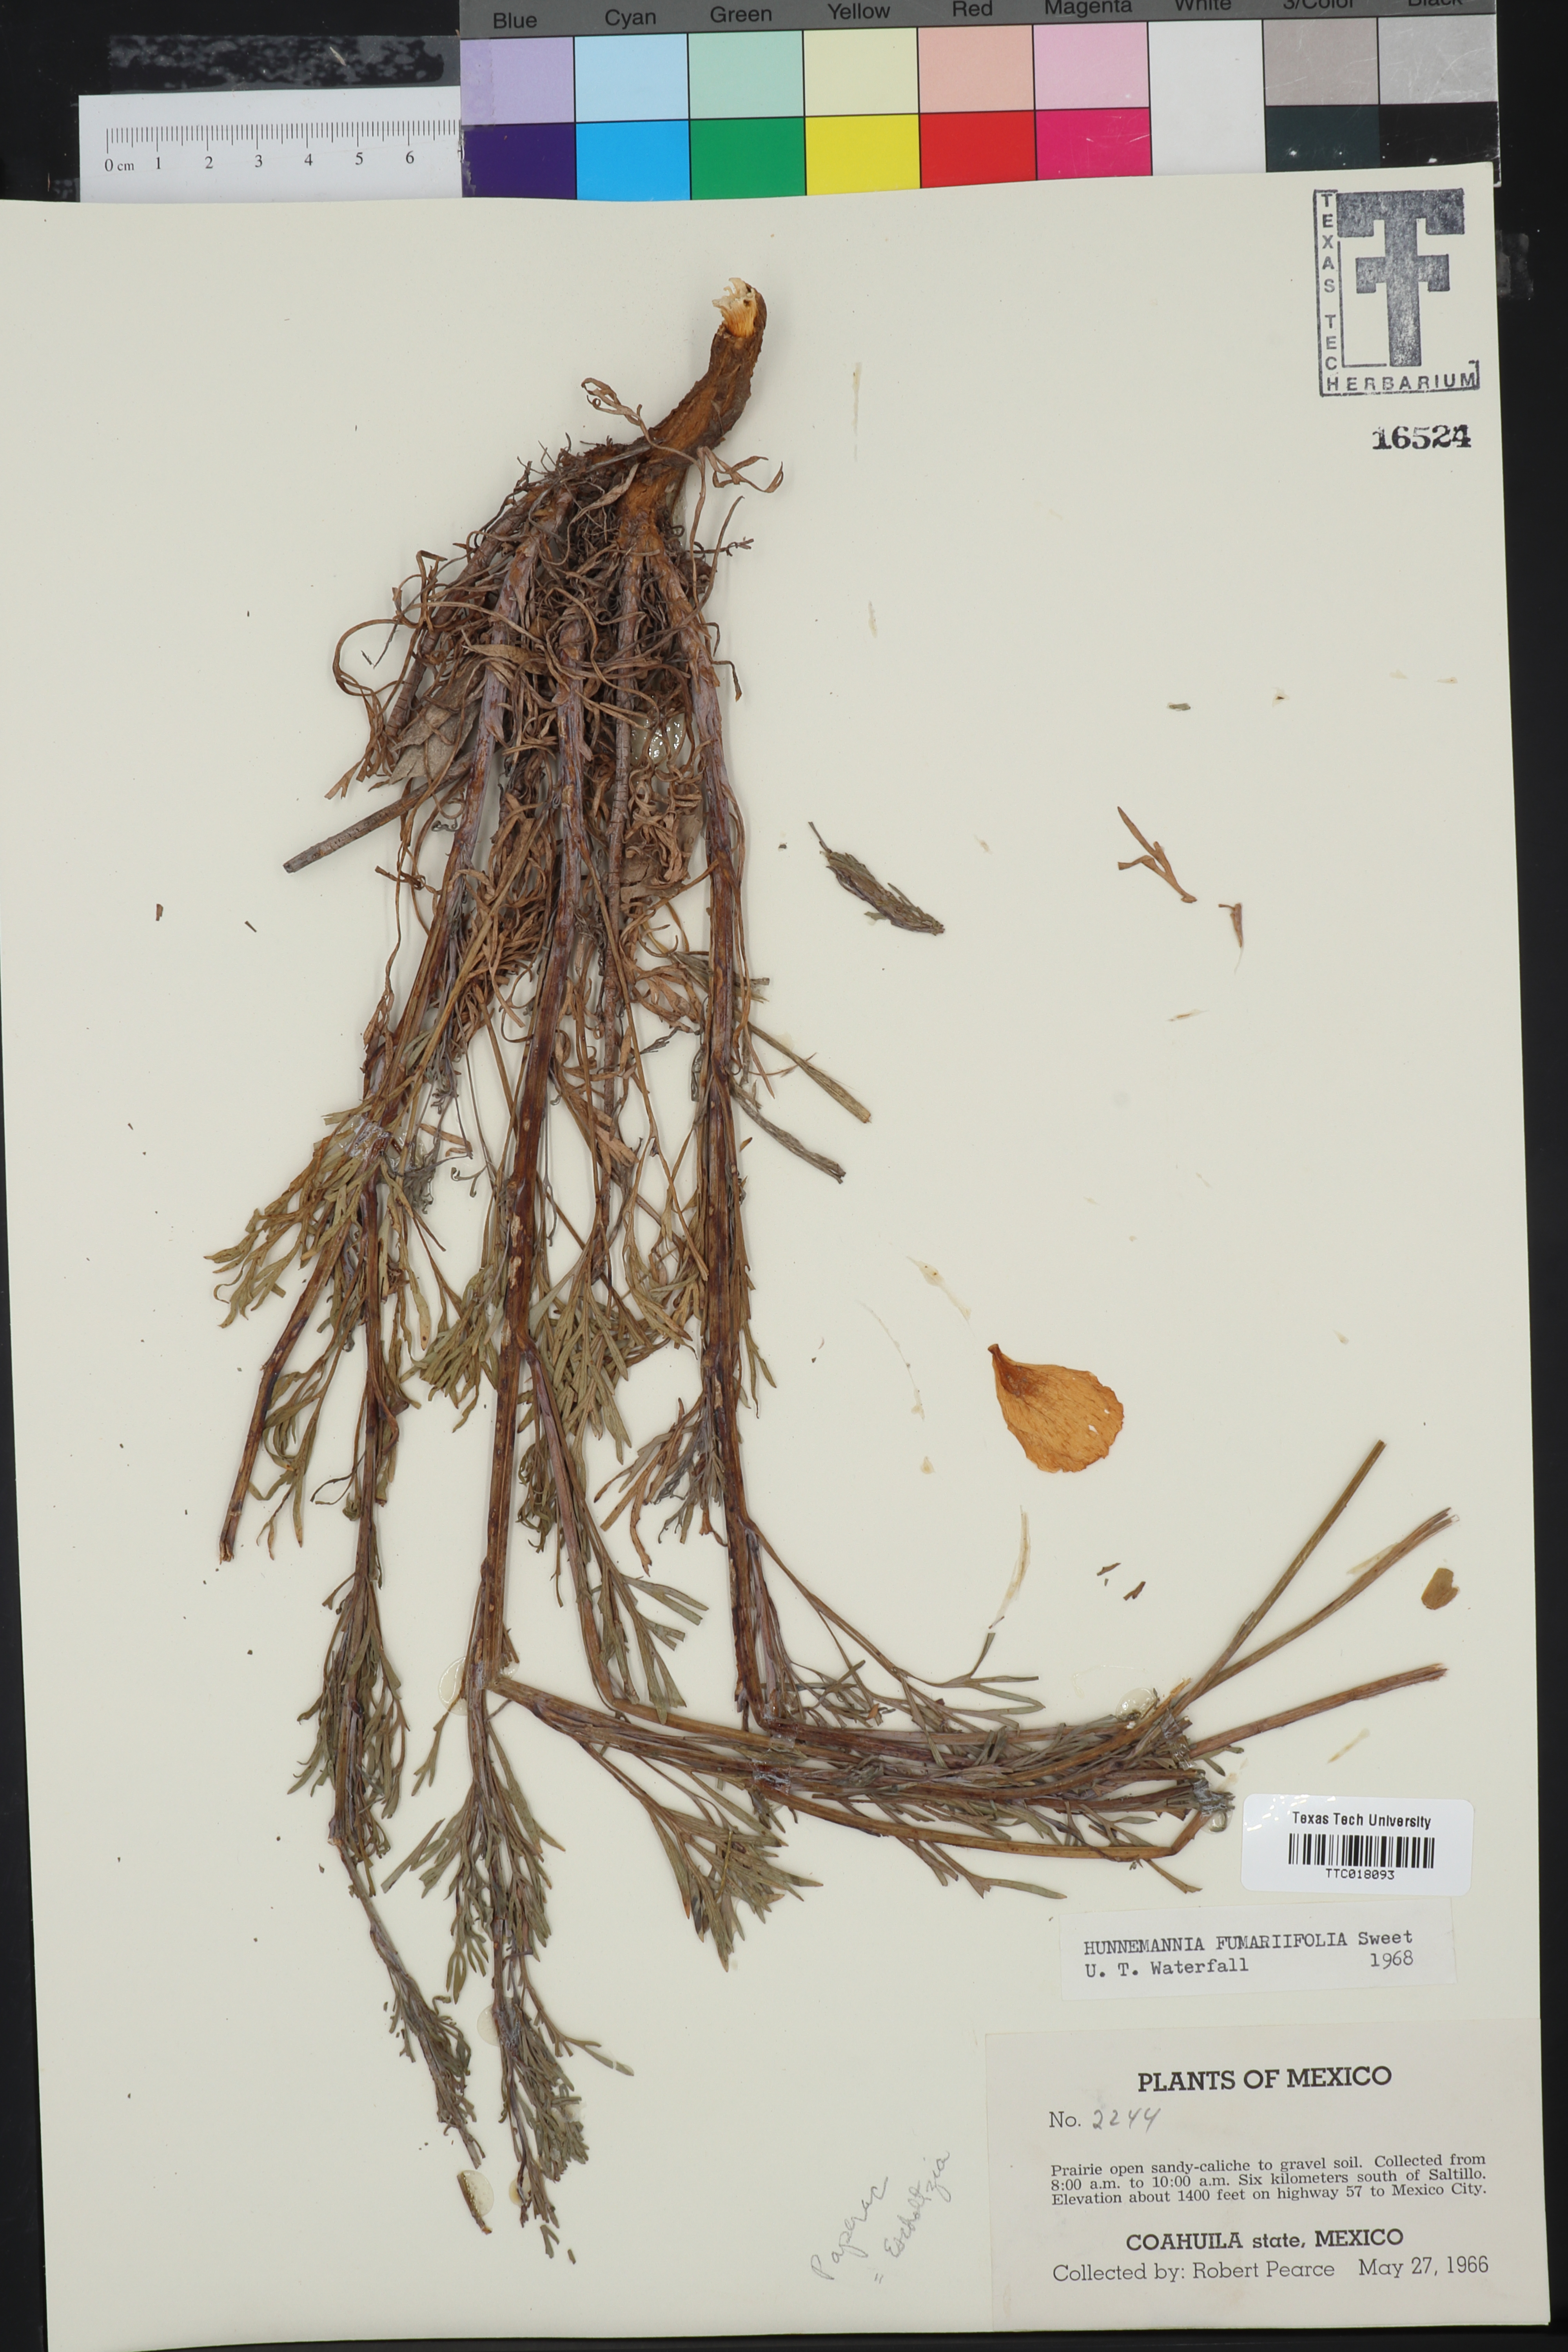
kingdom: Plantae
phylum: Tracheophyta
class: Magnoliopsida
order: Ranunculales
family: Papaveraceae
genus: Hunnemannia
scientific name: Hunnemannia fumariifolia
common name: Mexican tulip poppy
